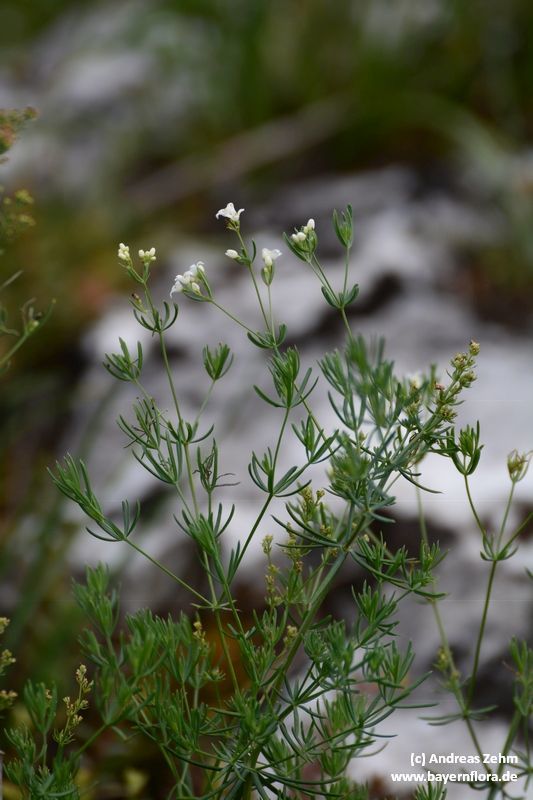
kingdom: Plantae
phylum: Tracheophyta
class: Magnoliopsida
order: Gentianales
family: Rubiaceae
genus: Galium
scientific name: Galium glaucum
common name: Waxy bedstraw
